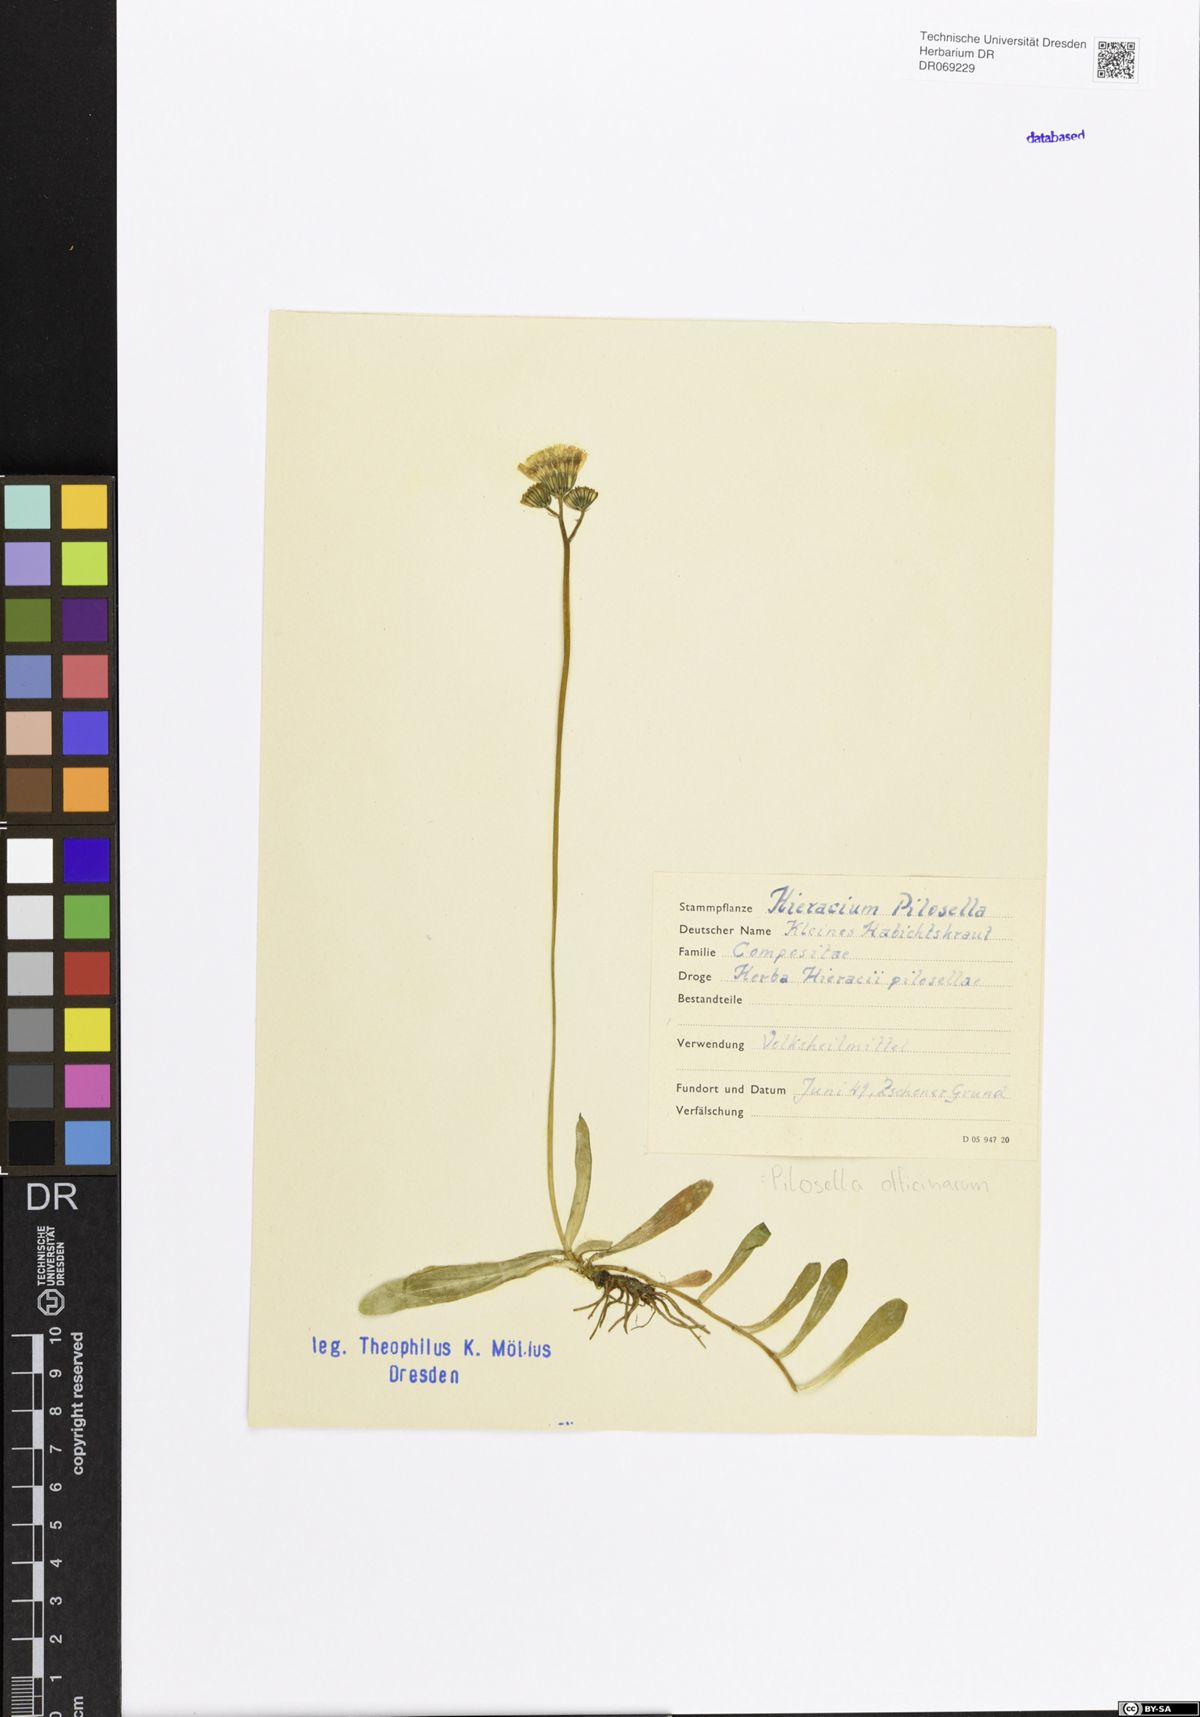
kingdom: Plantae
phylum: Tracheophyta
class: Magnoliopsida
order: Asterales
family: Asteraceae
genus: Pilosella
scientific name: Pilosella officinarum
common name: Mouse-ear hawkweed
